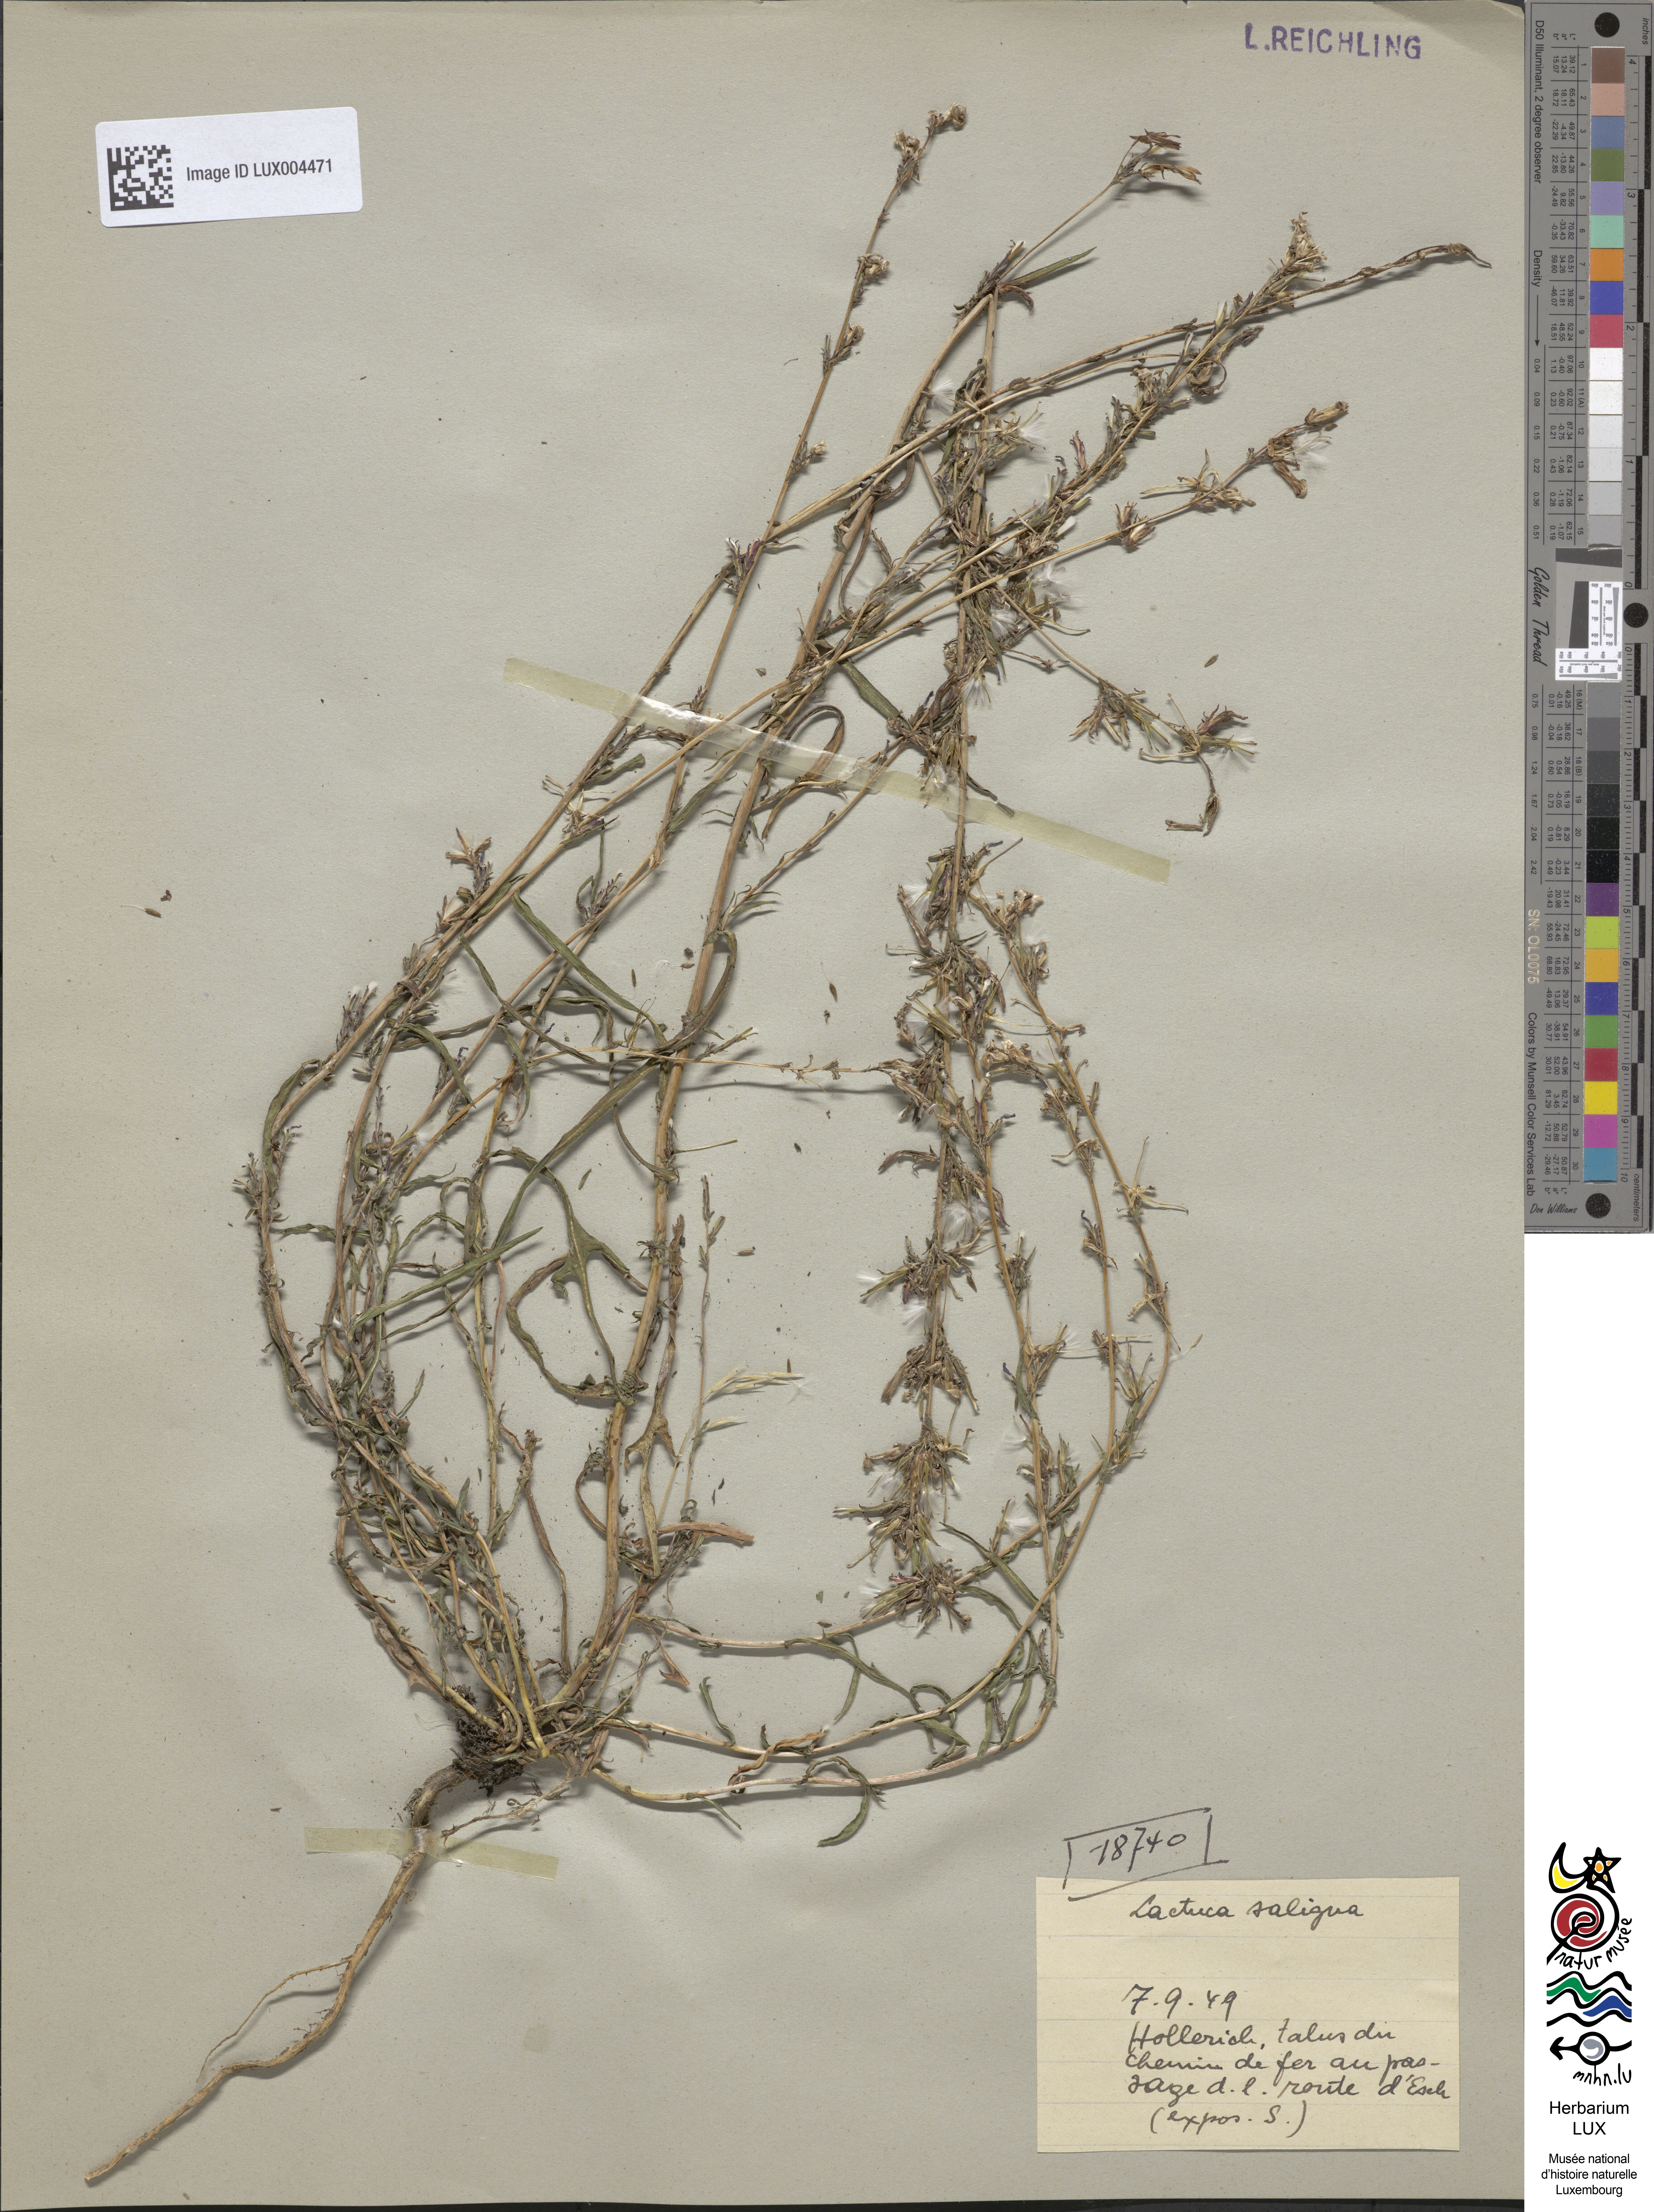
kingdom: Plantae
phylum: Tracheophyta
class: Magnoliopsida
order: Asterales
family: Asteraceae
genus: Lactuca
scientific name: Lactuca saligna
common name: Wild lettuce
